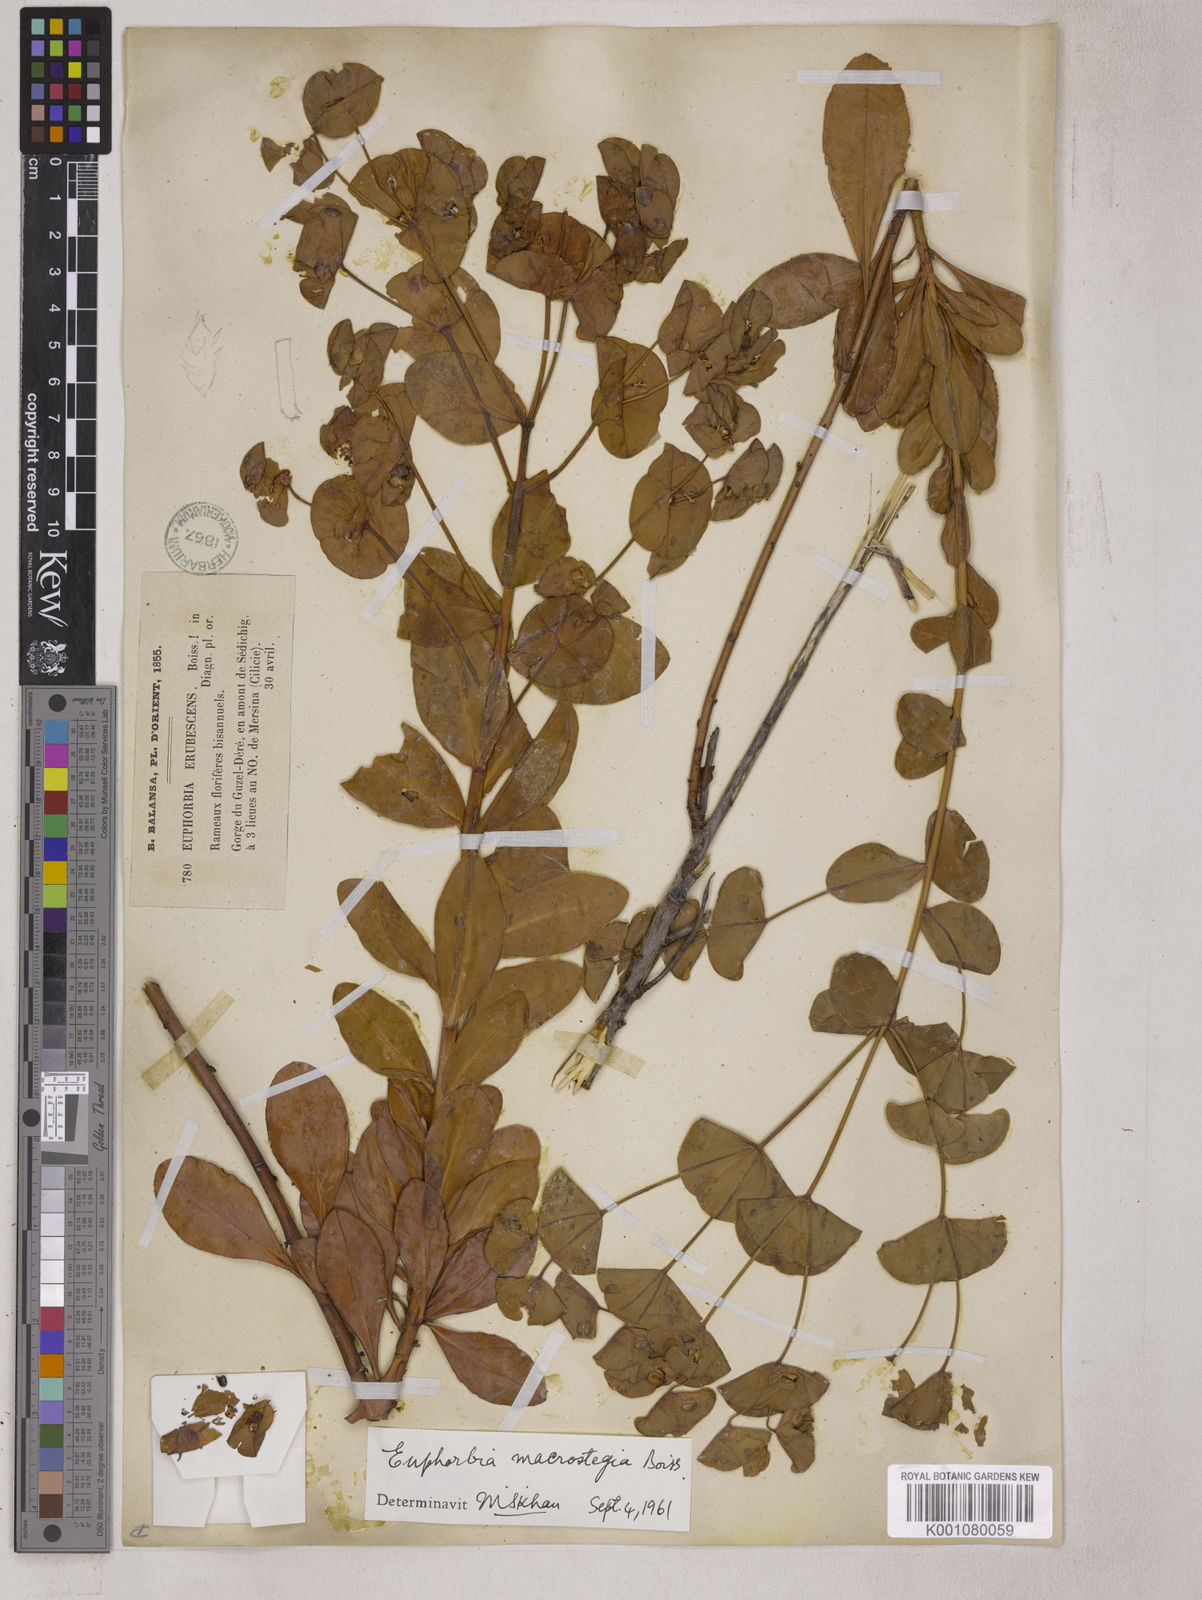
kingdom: Plantae
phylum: Tracheophyta
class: Magnoliopsida
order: Malpighiales
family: Euphorbiaceae
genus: Euphorbia
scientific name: Euphorbia erubescens
